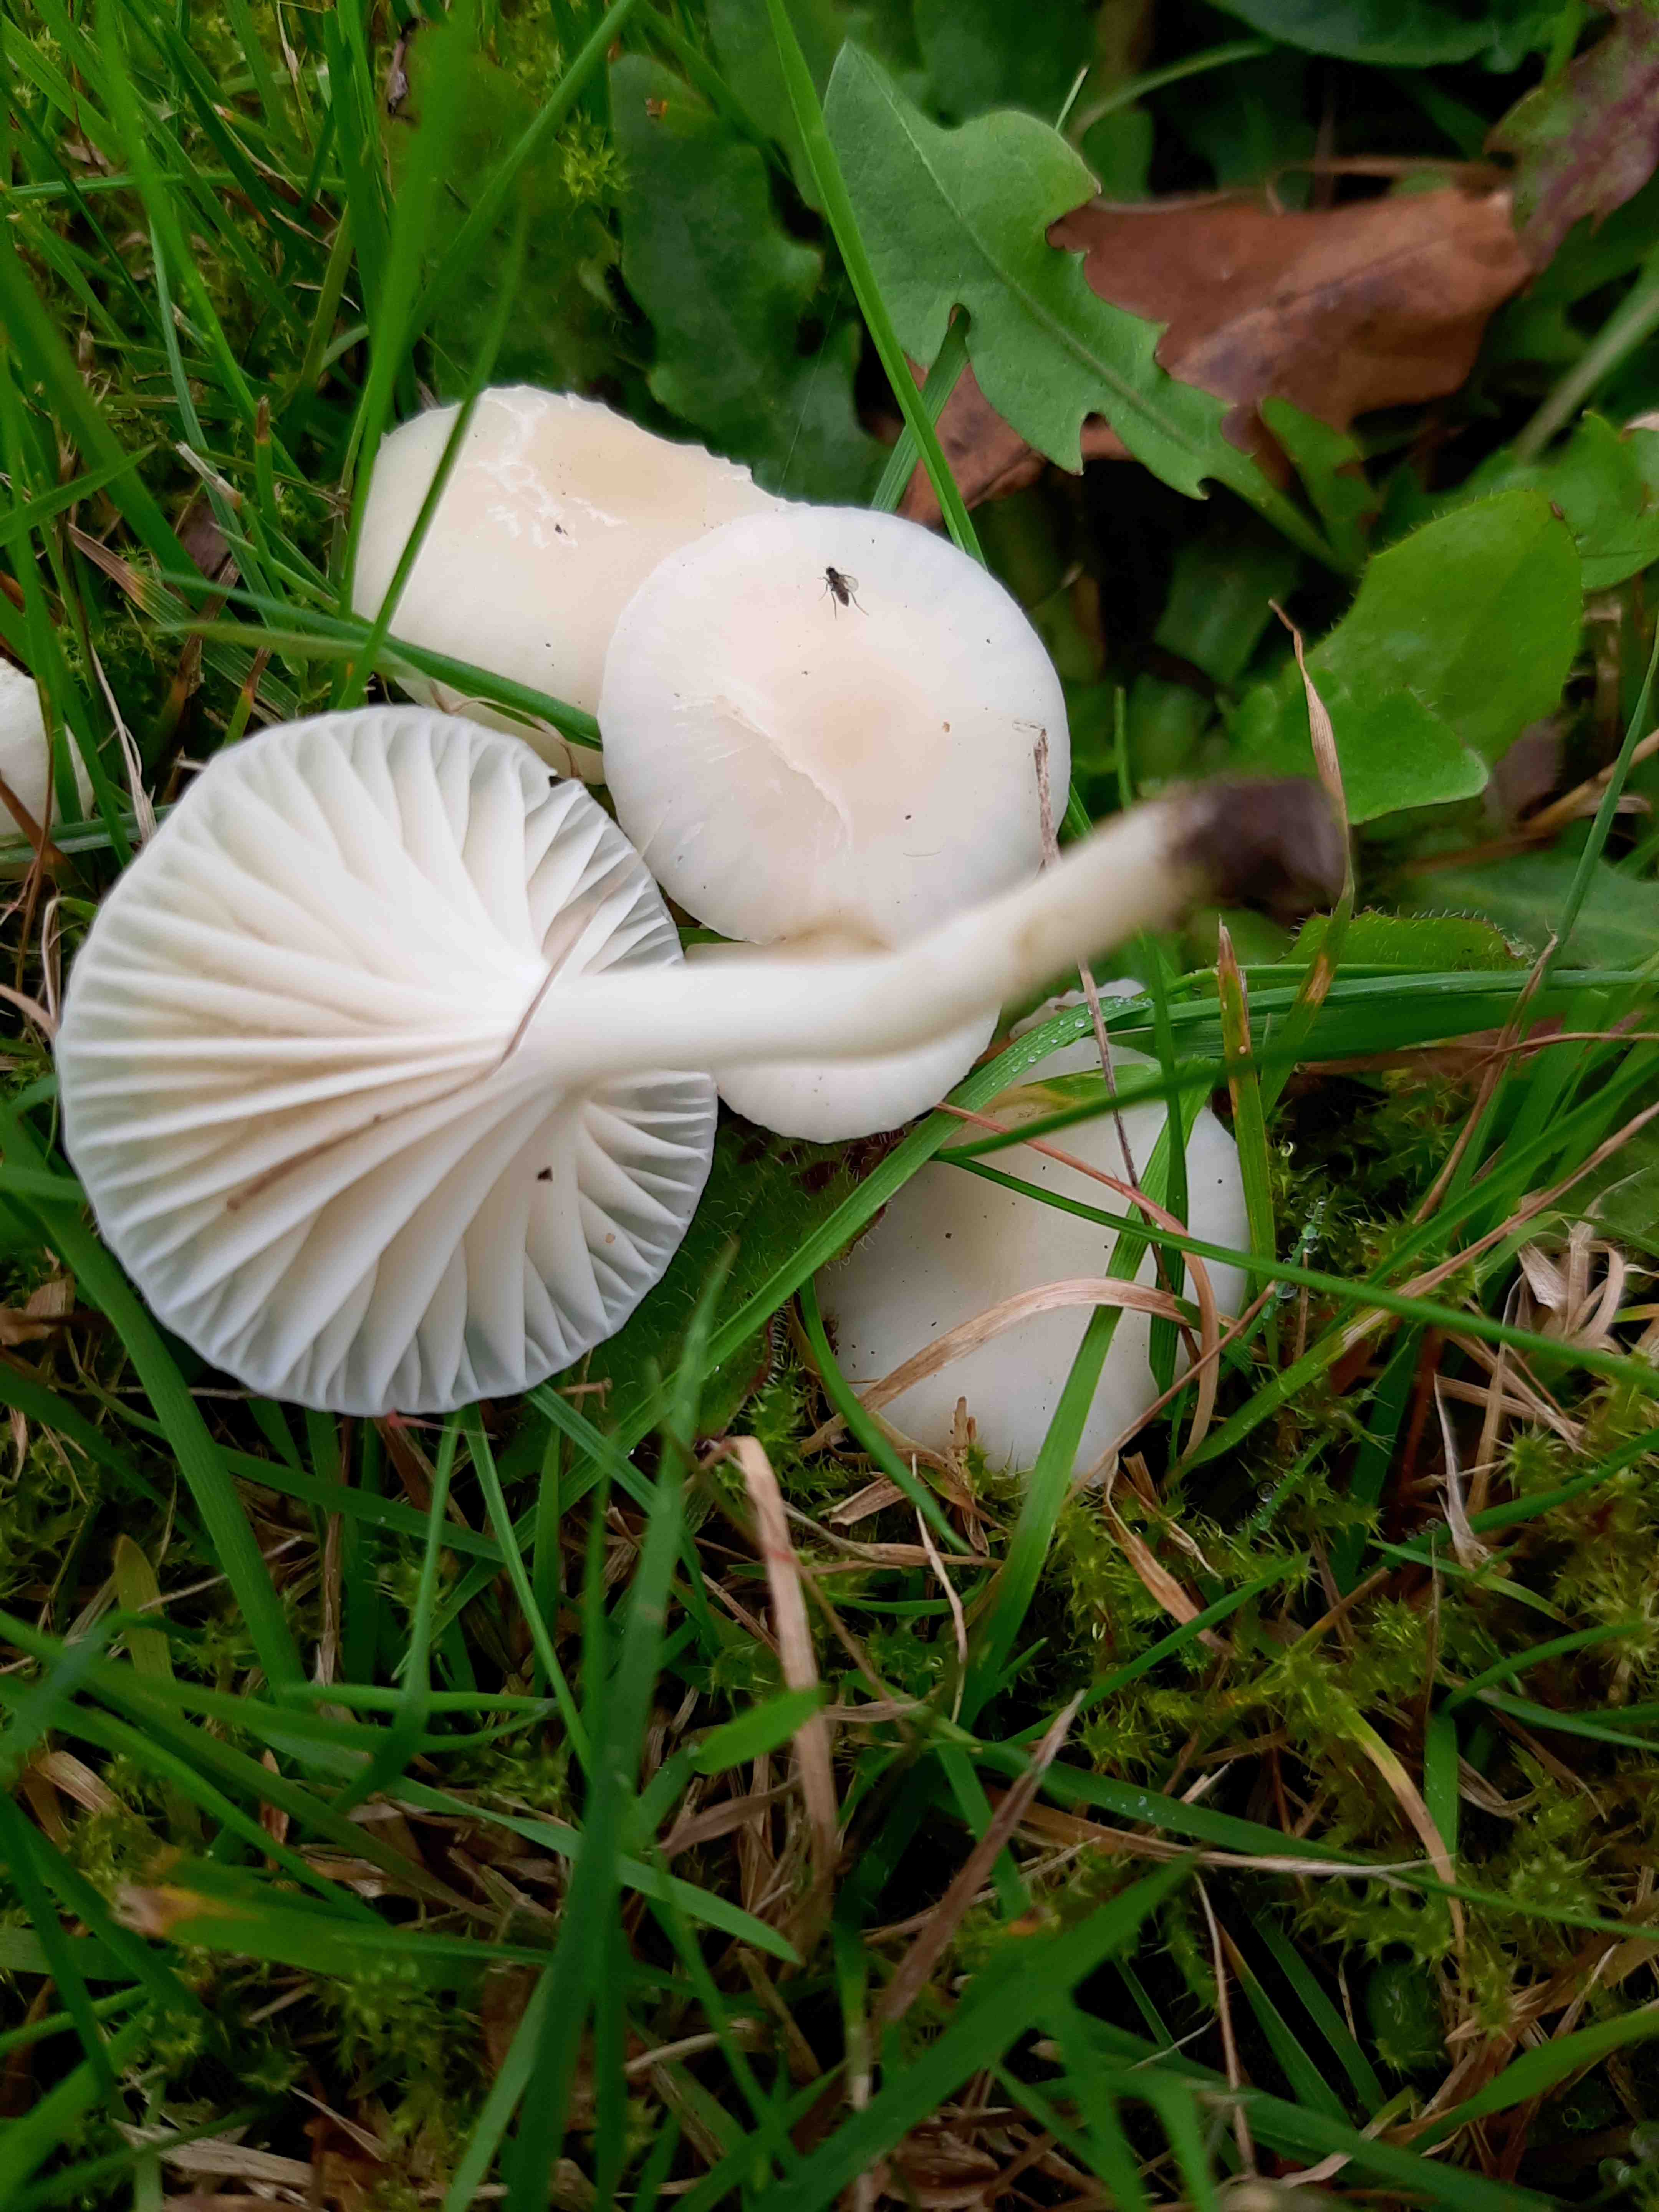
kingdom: Fungi
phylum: Basidiomycota
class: Agaricomycetes
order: Agaricales
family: Hygrophoraceae
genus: Cuphophyllus
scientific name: Cuphophyllus virgineus
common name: snehvid vokshat
